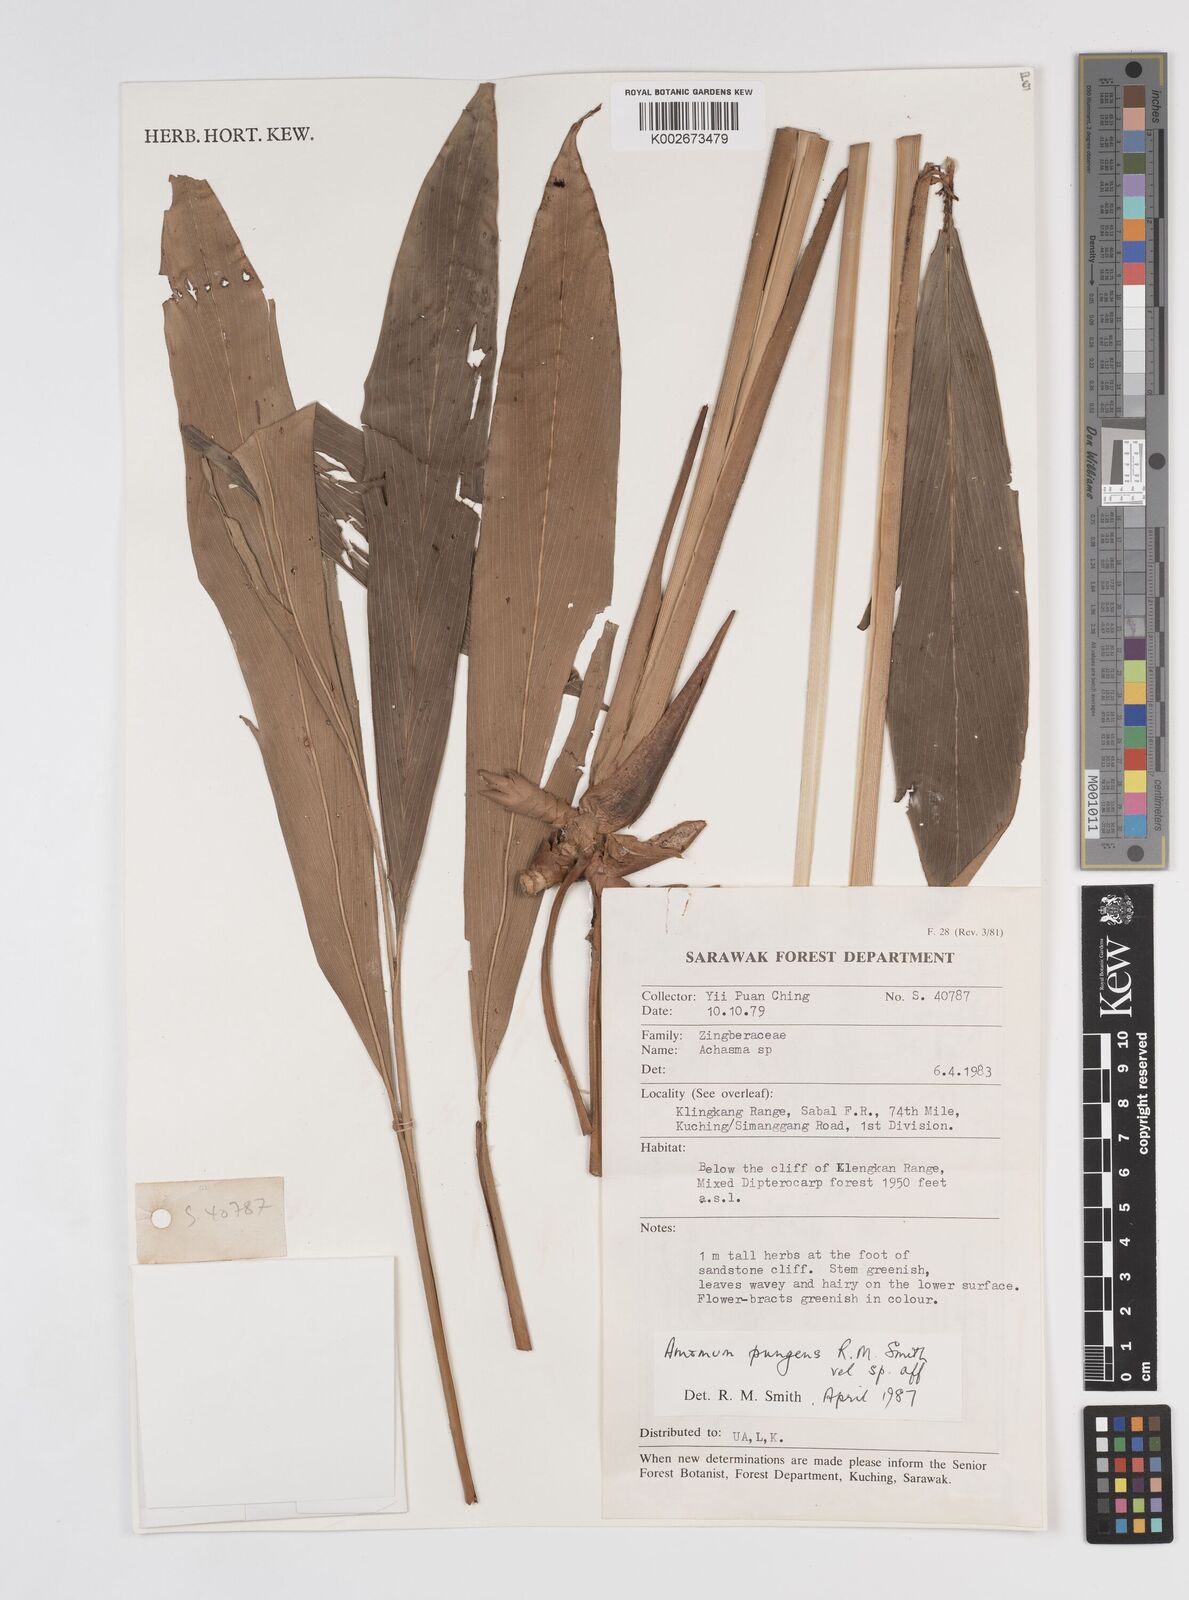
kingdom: Plantae
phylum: Tracheophyta
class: Liliopsida
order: Zingiberales
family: Zingiberaceae
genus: Epiamomum
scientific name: Epiamomum pungens
